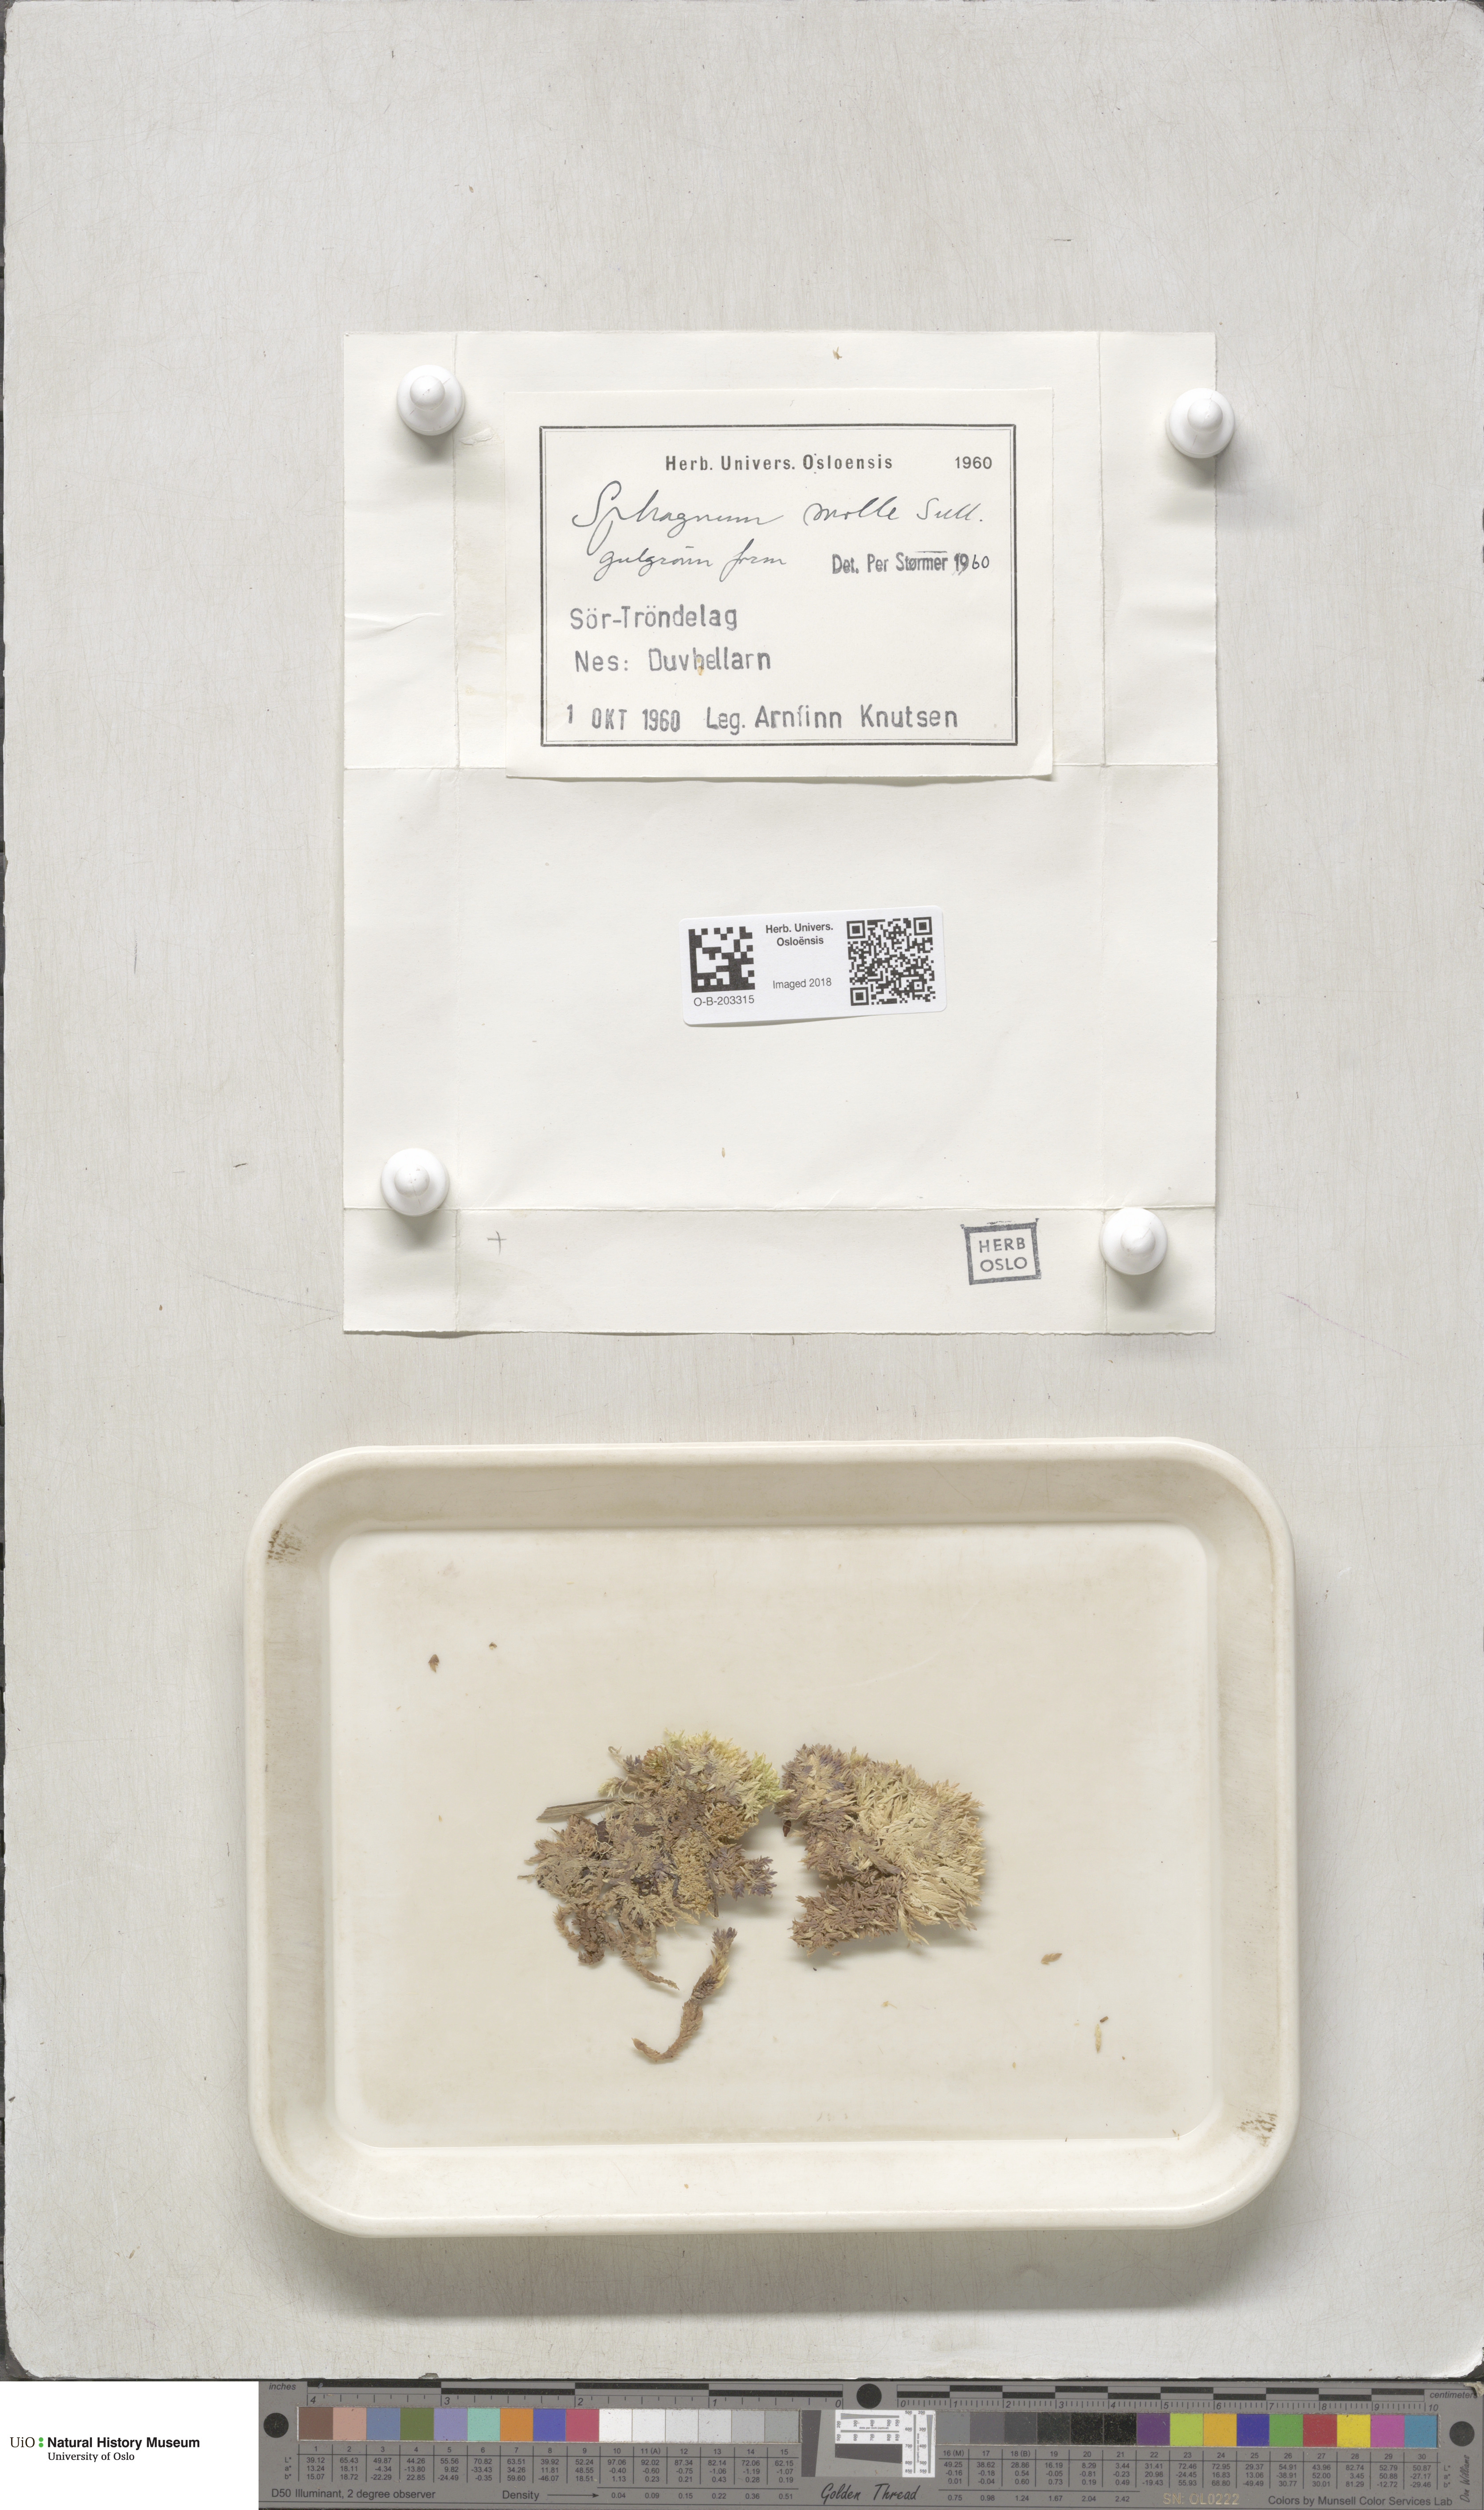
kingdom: Plantae
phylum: Bryophyta
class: Sphagnopsida
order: Sphagnales
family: Sphagnaceae
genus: Sphagnum
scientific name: Sphagnum molle
